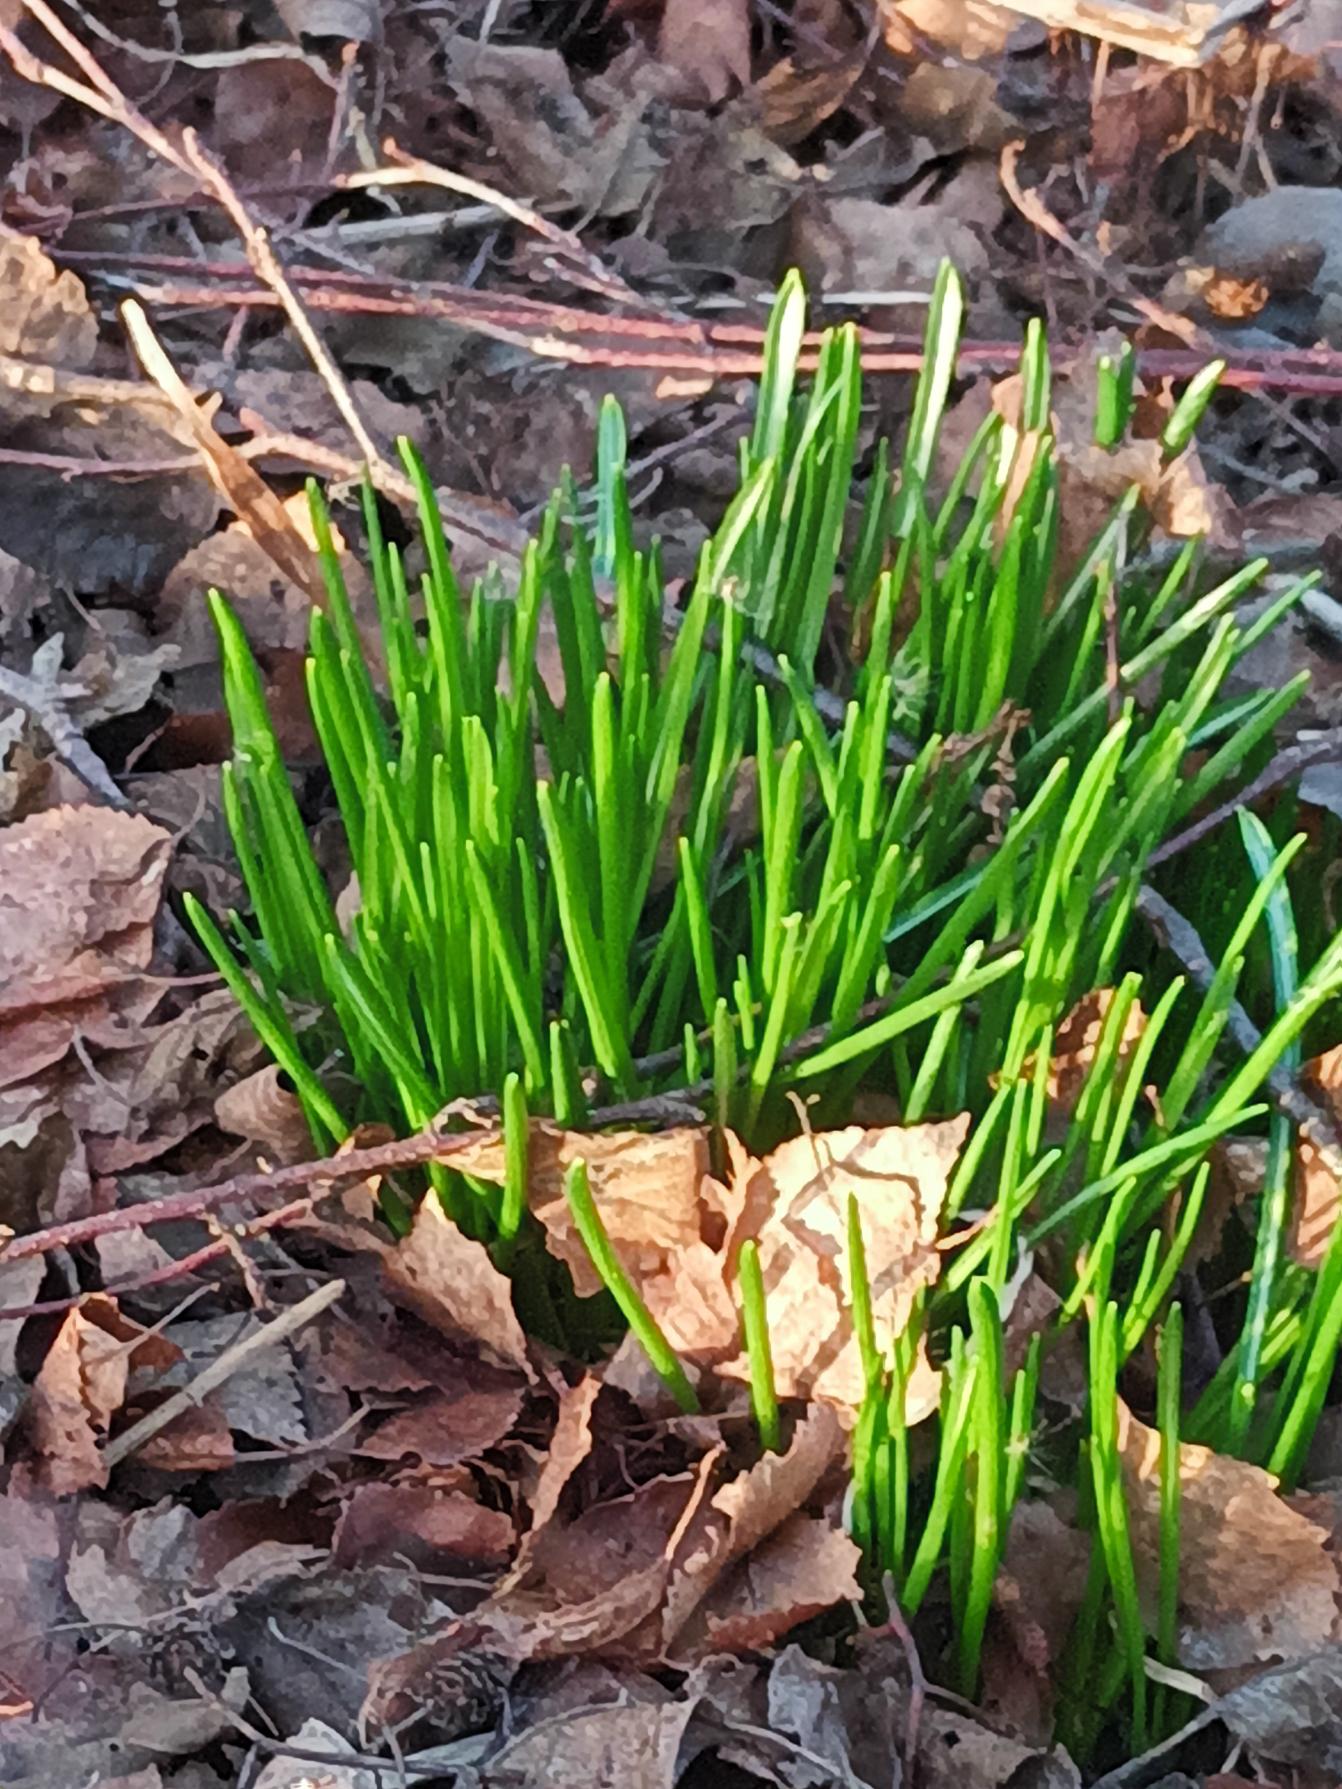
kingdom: Plantae
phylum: Tracheophyta
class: Liliopsida
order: Asparagales
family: Asparagaceae
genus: Ornithogalum
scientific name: Ornithogalum umbellatum
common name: Kost-fuglemælk
